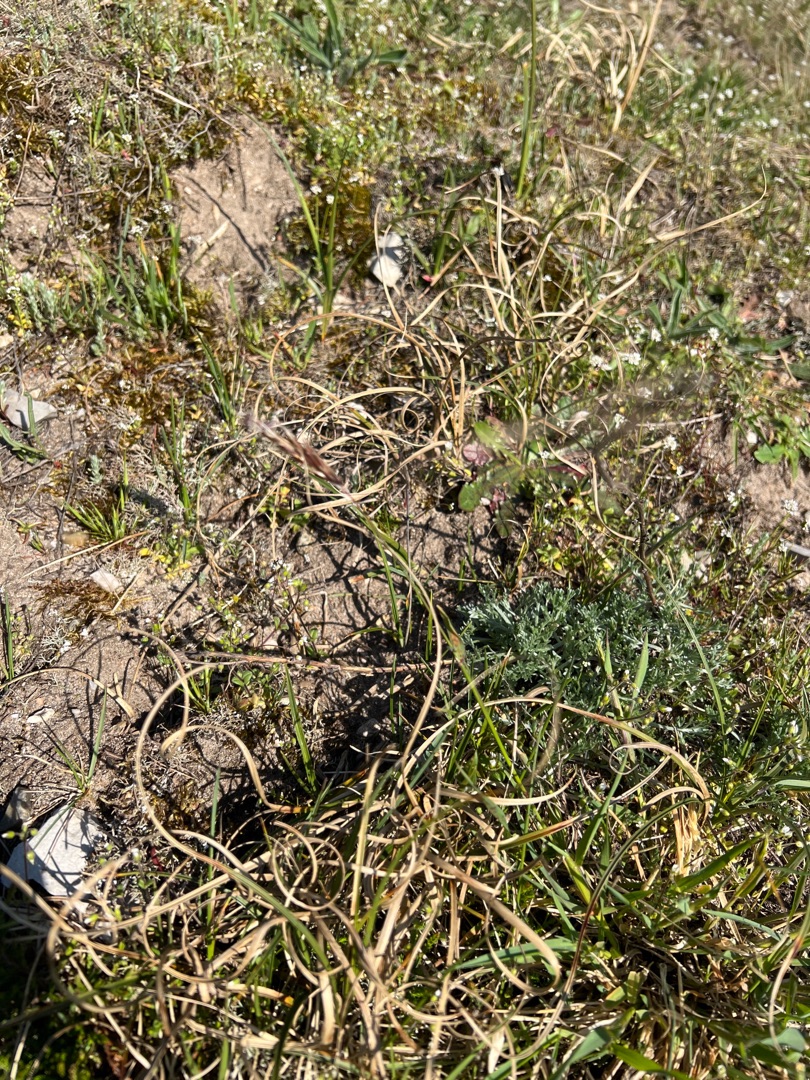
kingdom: Plantae
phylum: Tracheophyta
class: Liliopsida
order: Poales
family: Poaceae
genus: Anthoxanthum
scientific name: Anthoxanthum odoratum
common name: Vellugtende gulaks
